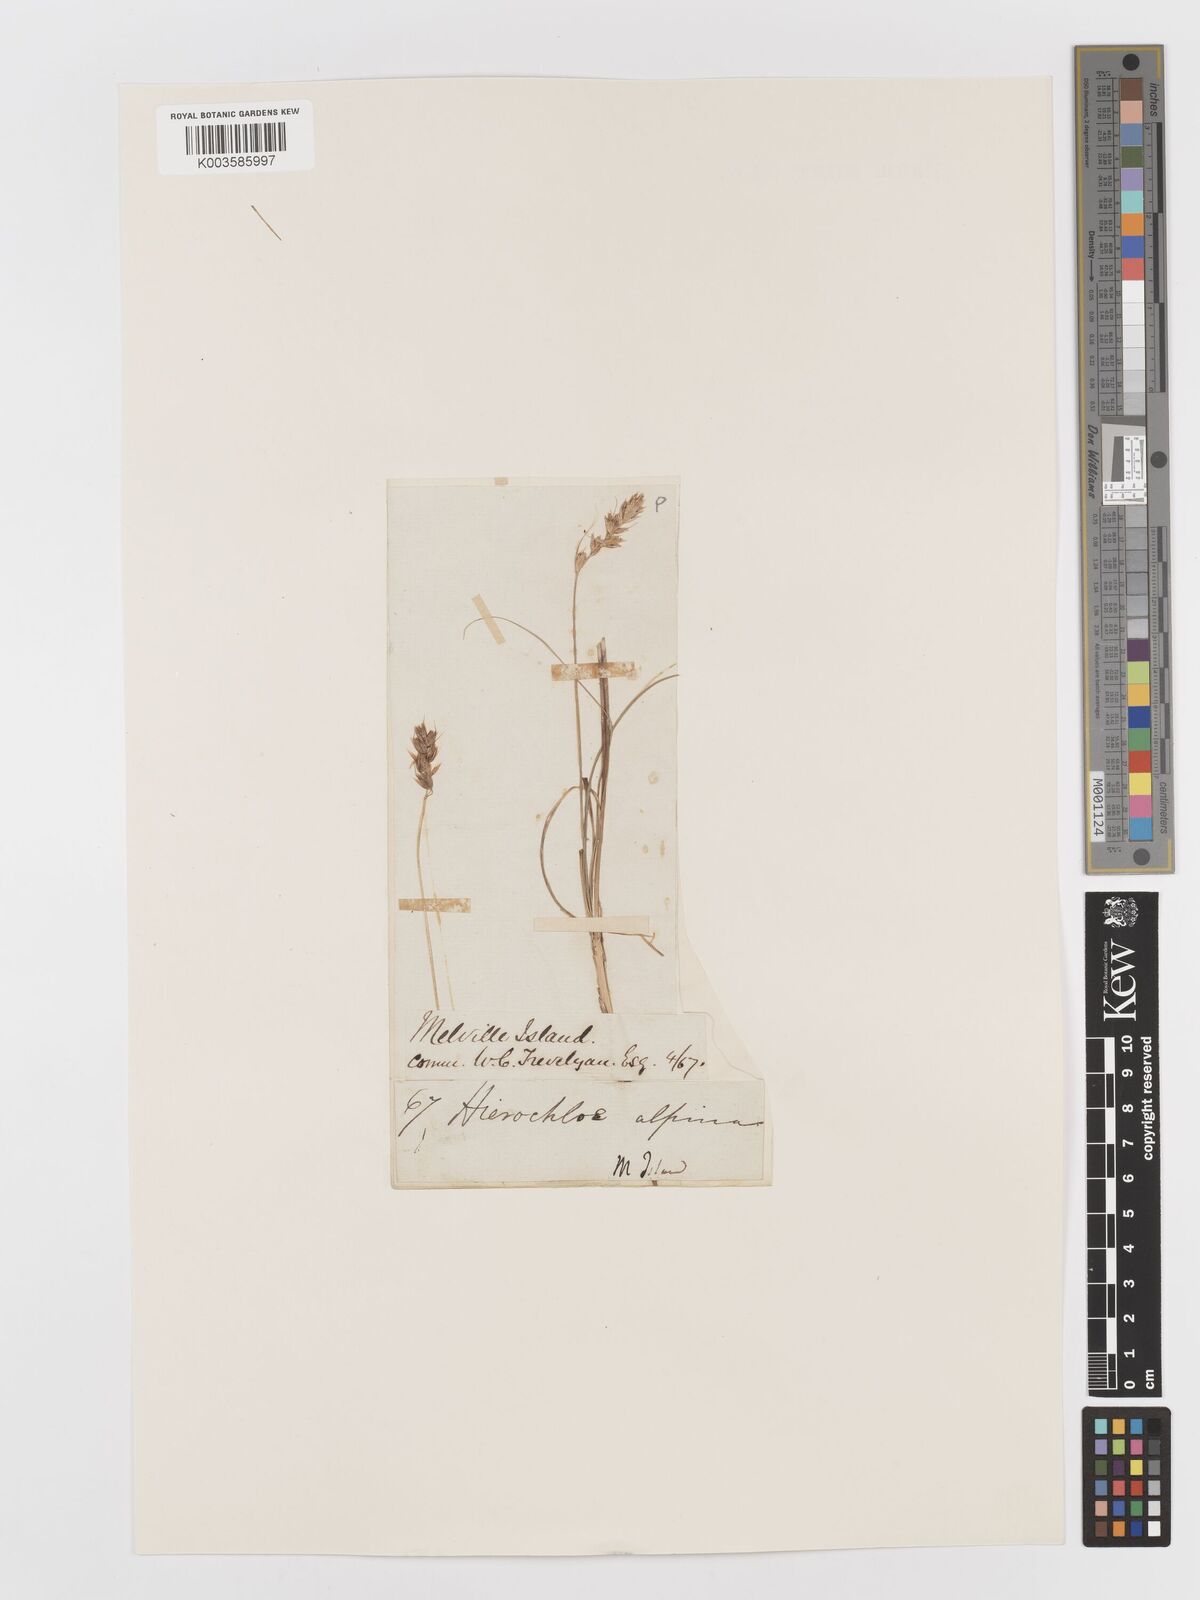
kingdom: Plantae
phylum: Tracheophyta
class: Liliopsida
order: Poales
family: Poaceae
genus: Anthoxanthum
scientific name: Anthoxanthum monticola
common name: Alpine sweetgrass
